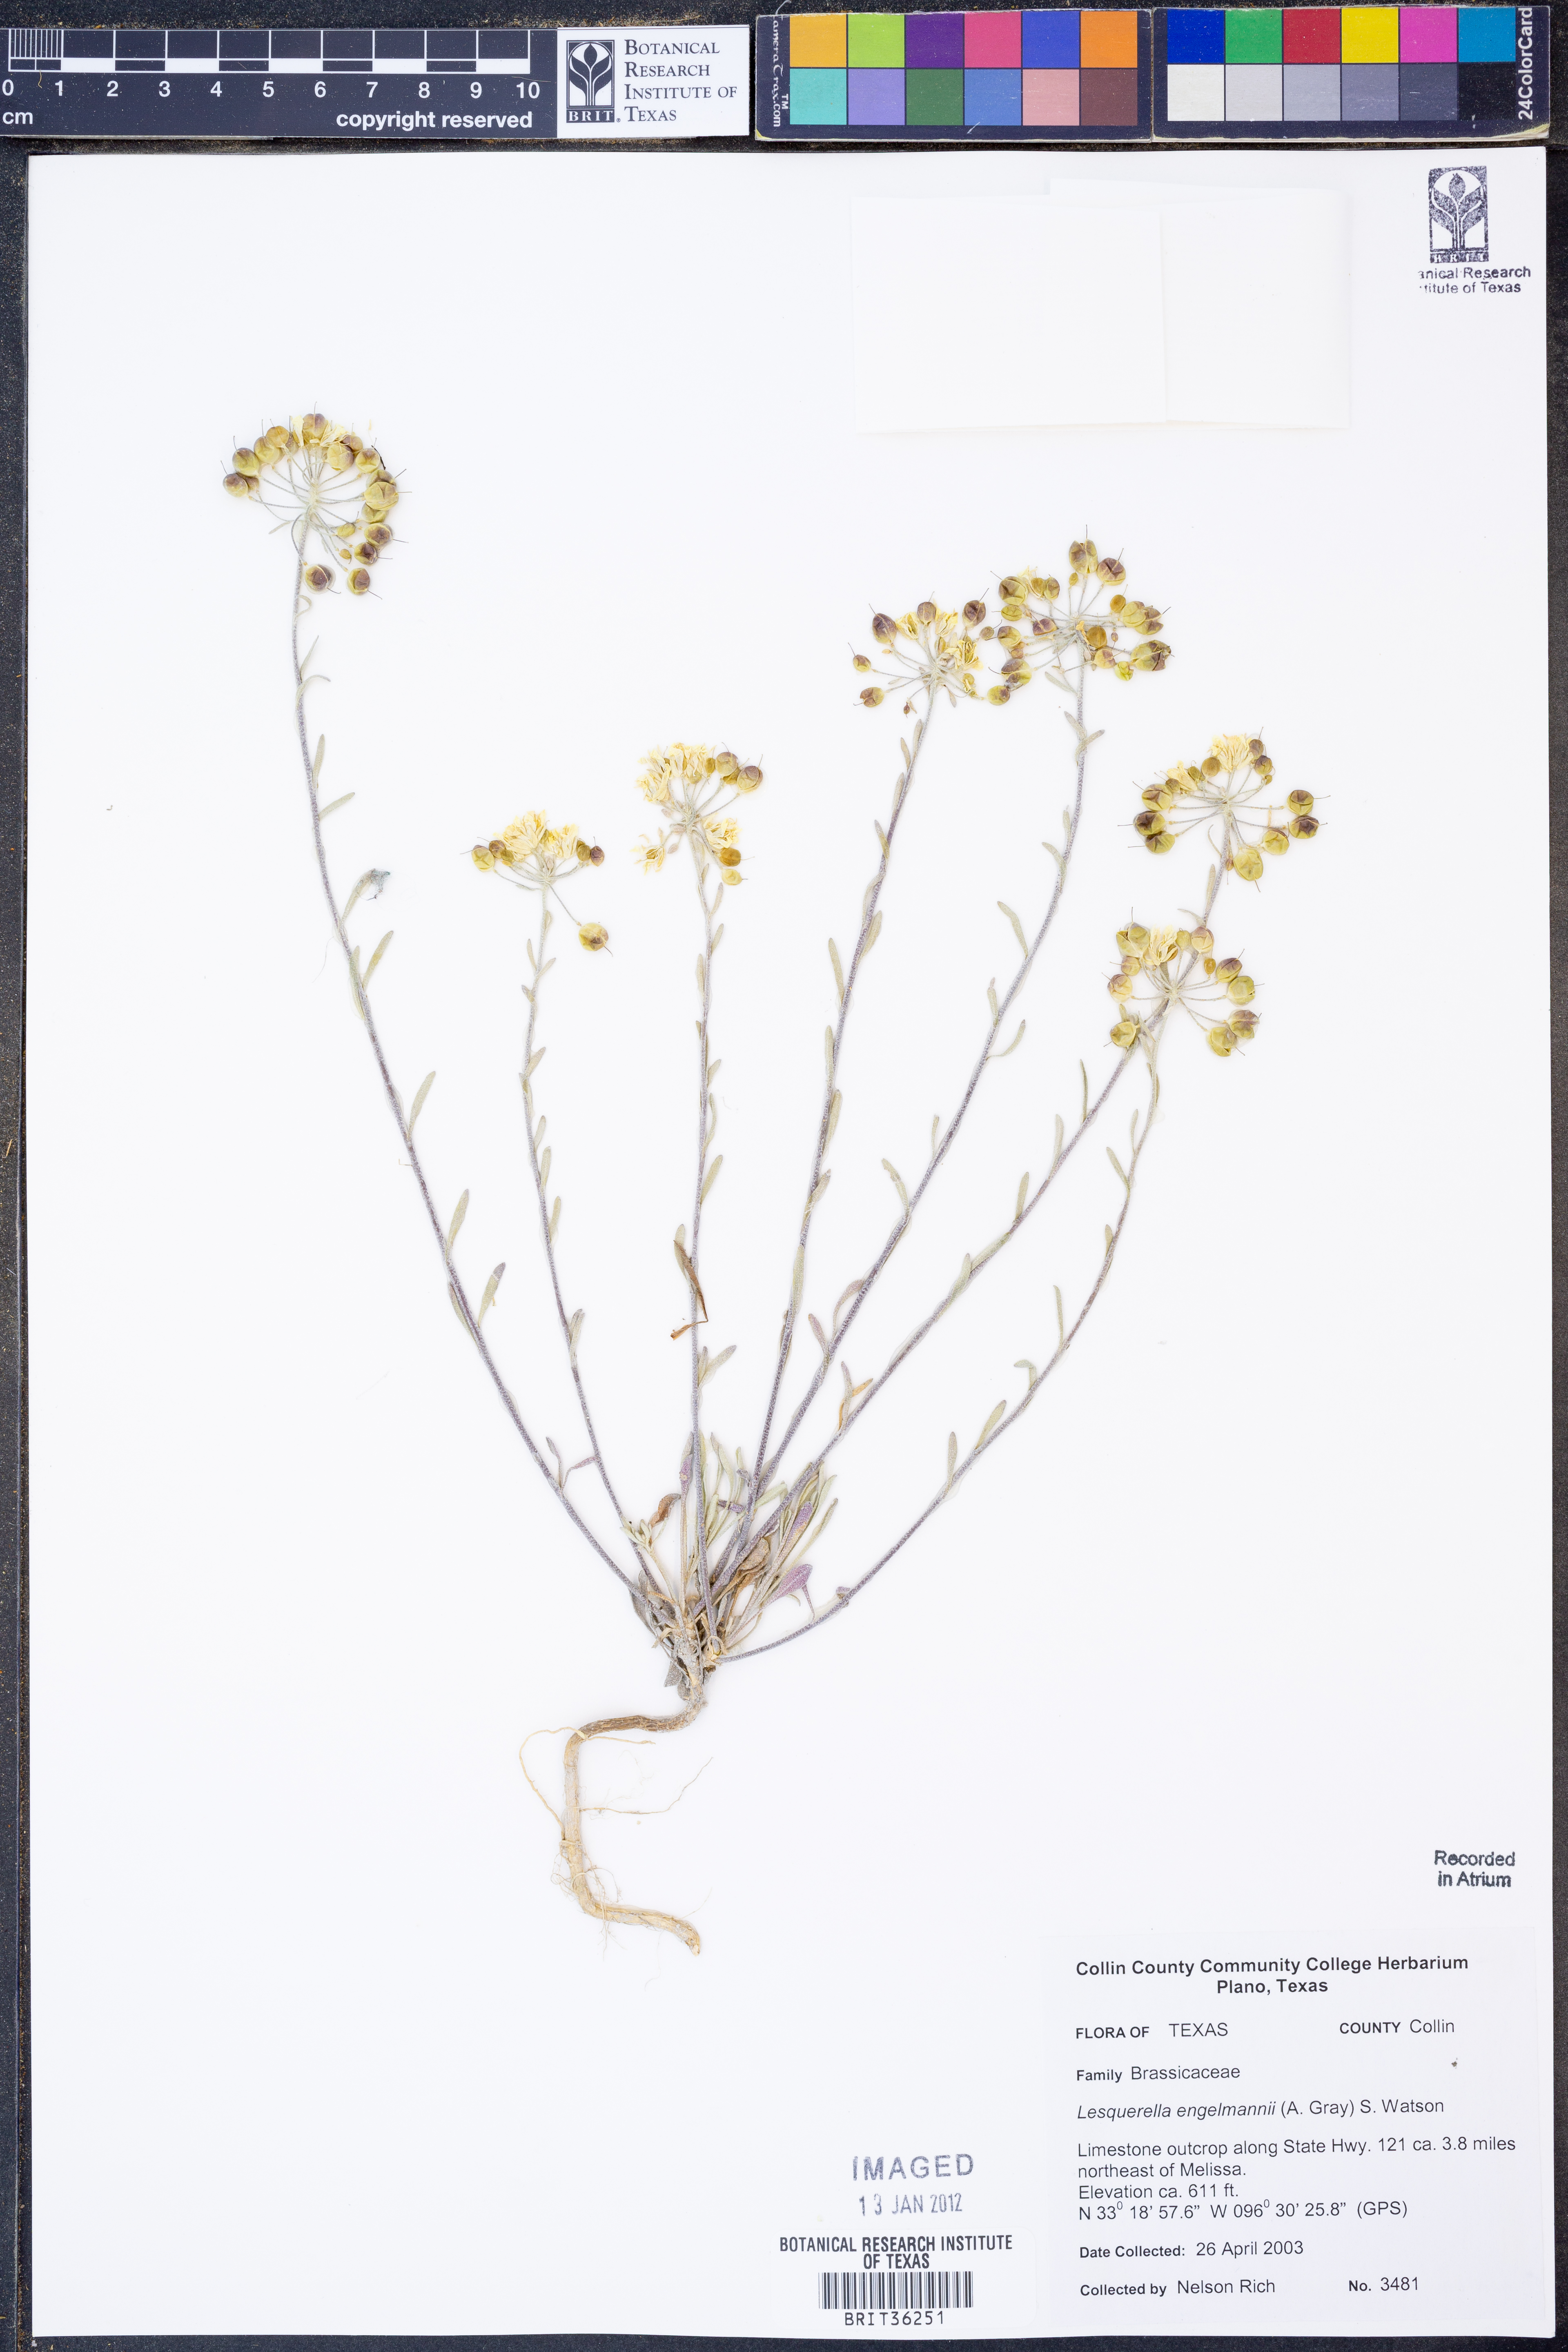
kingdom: Plantae
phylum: Tracheophyta
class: Magnoliopsida
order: Brassicales
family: Brassicaceae
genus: Physaria
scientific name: Physaria engelmannii
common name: Engelmann's bladderpod
